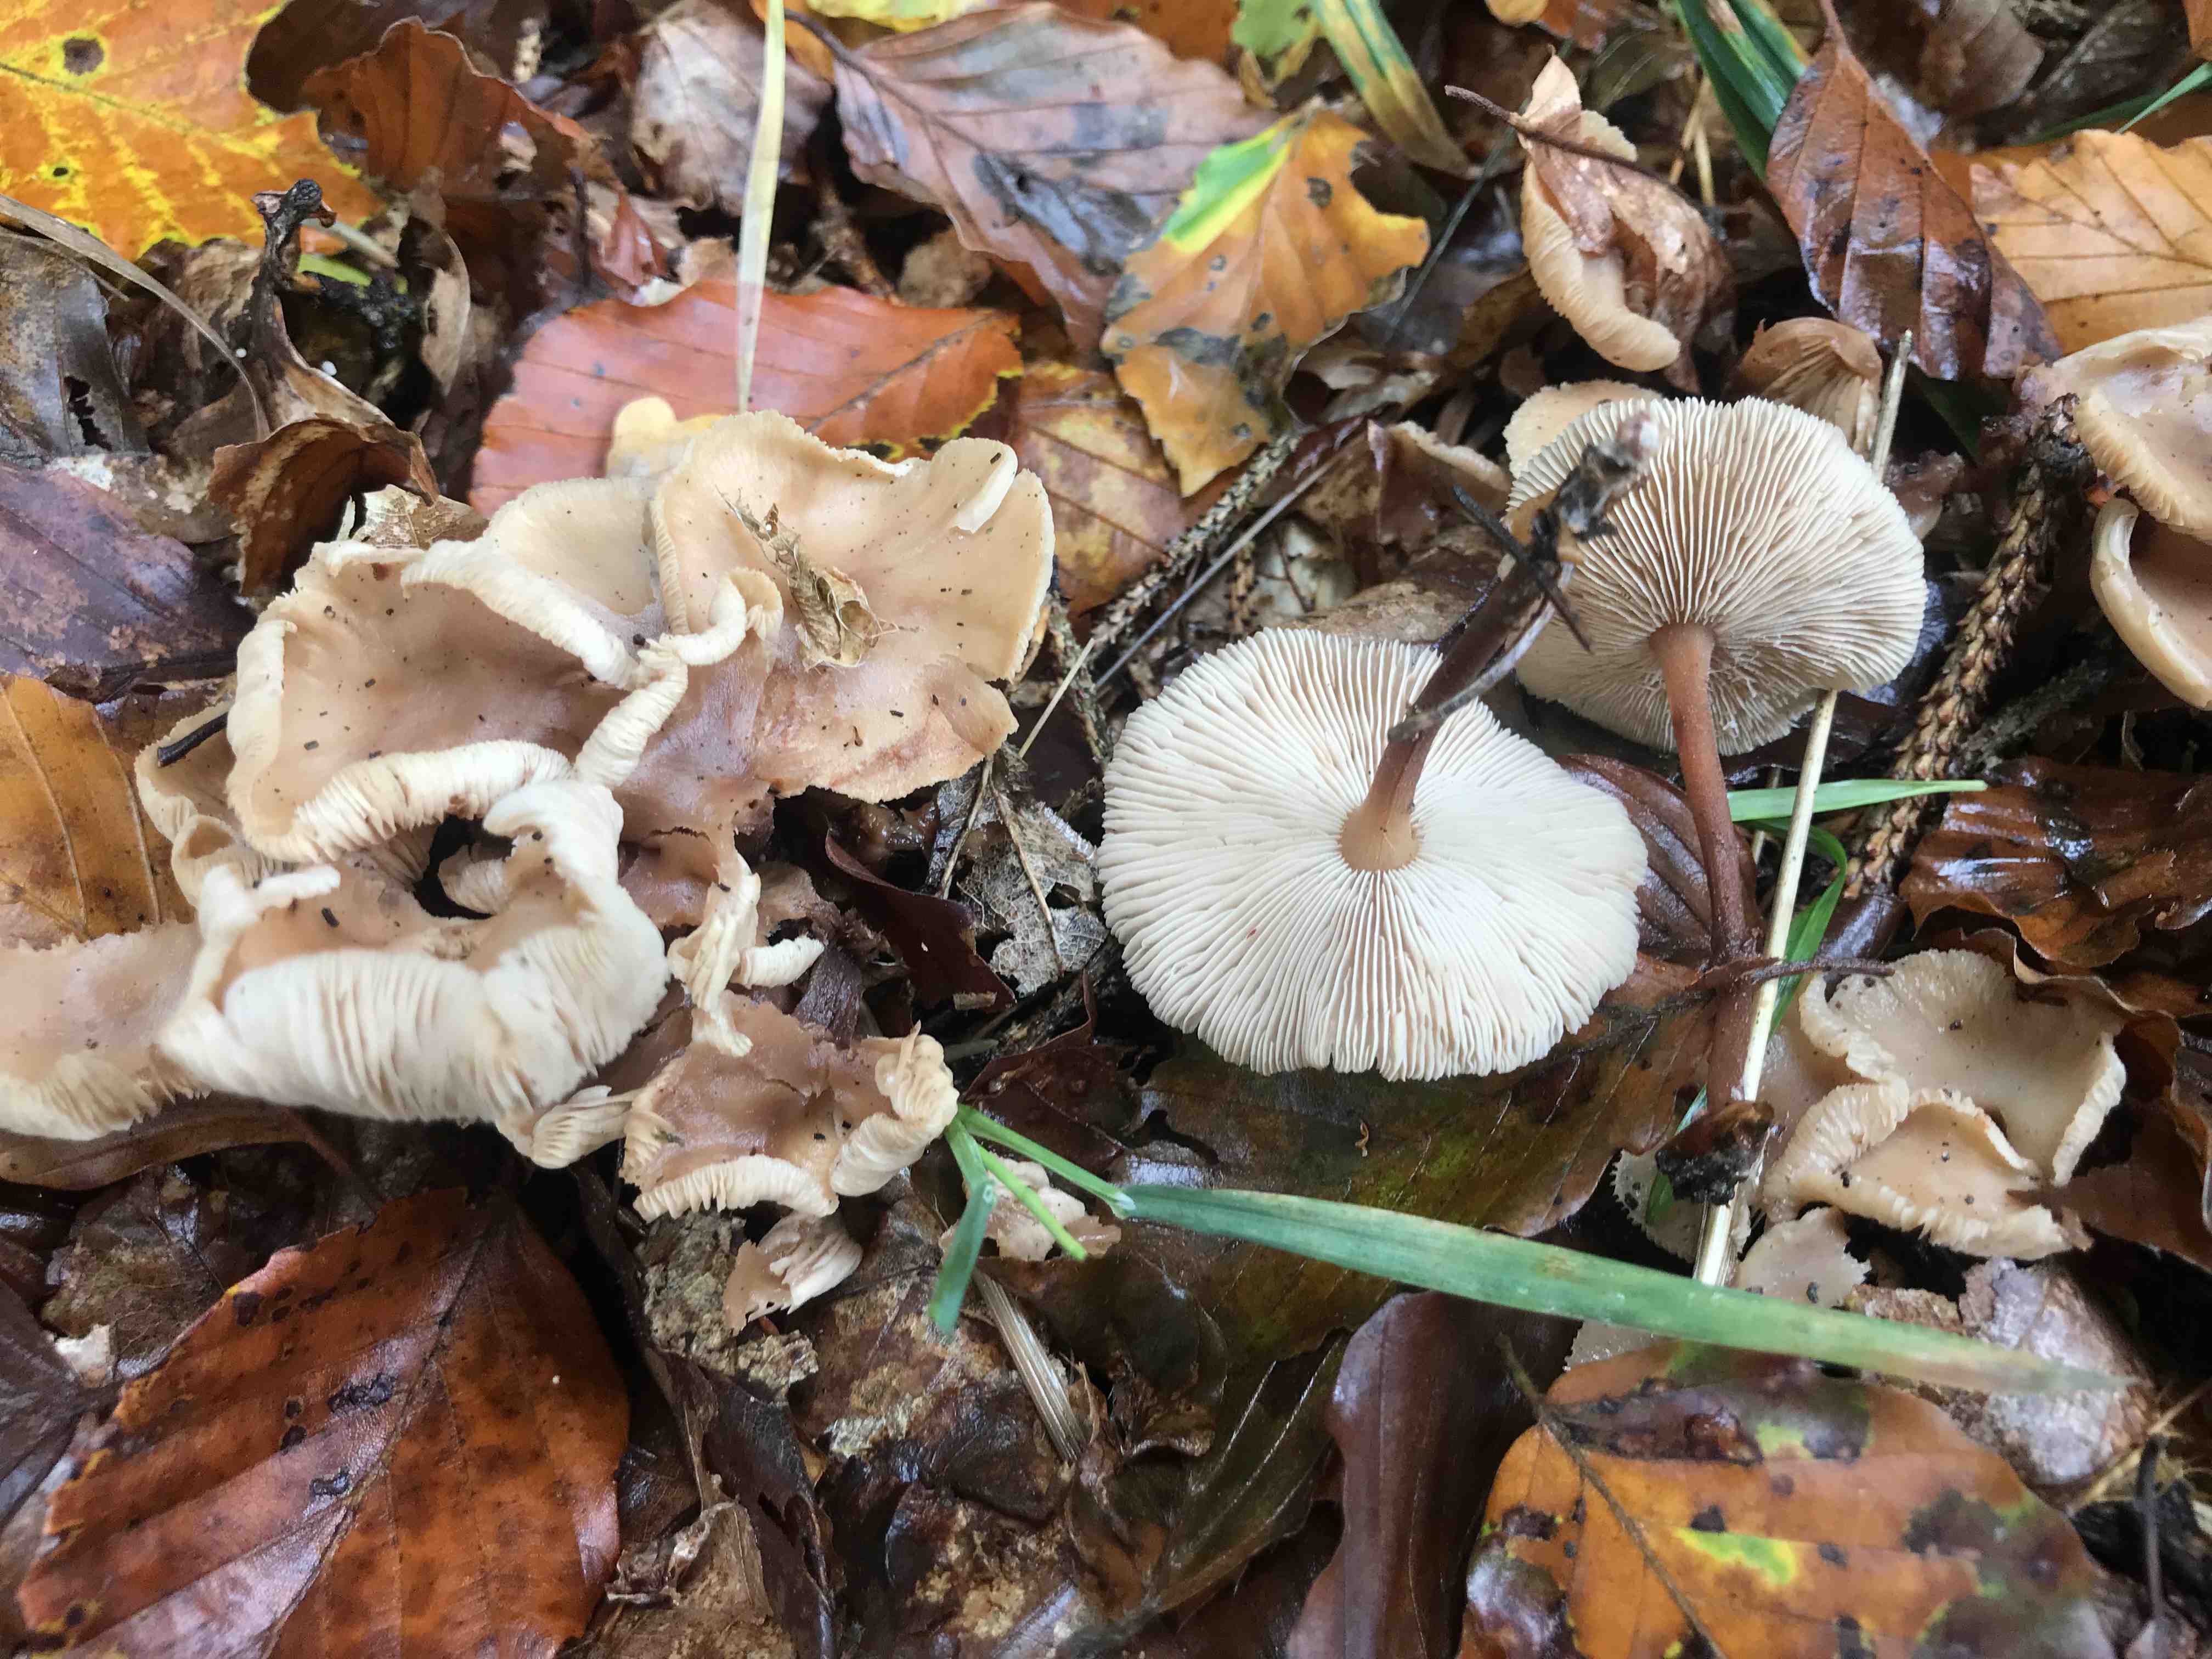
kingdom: Fungi
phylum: Basidiomycota
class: Agaricomycetes
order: Agaricales
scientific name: Agaricales
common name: champignonordenen
